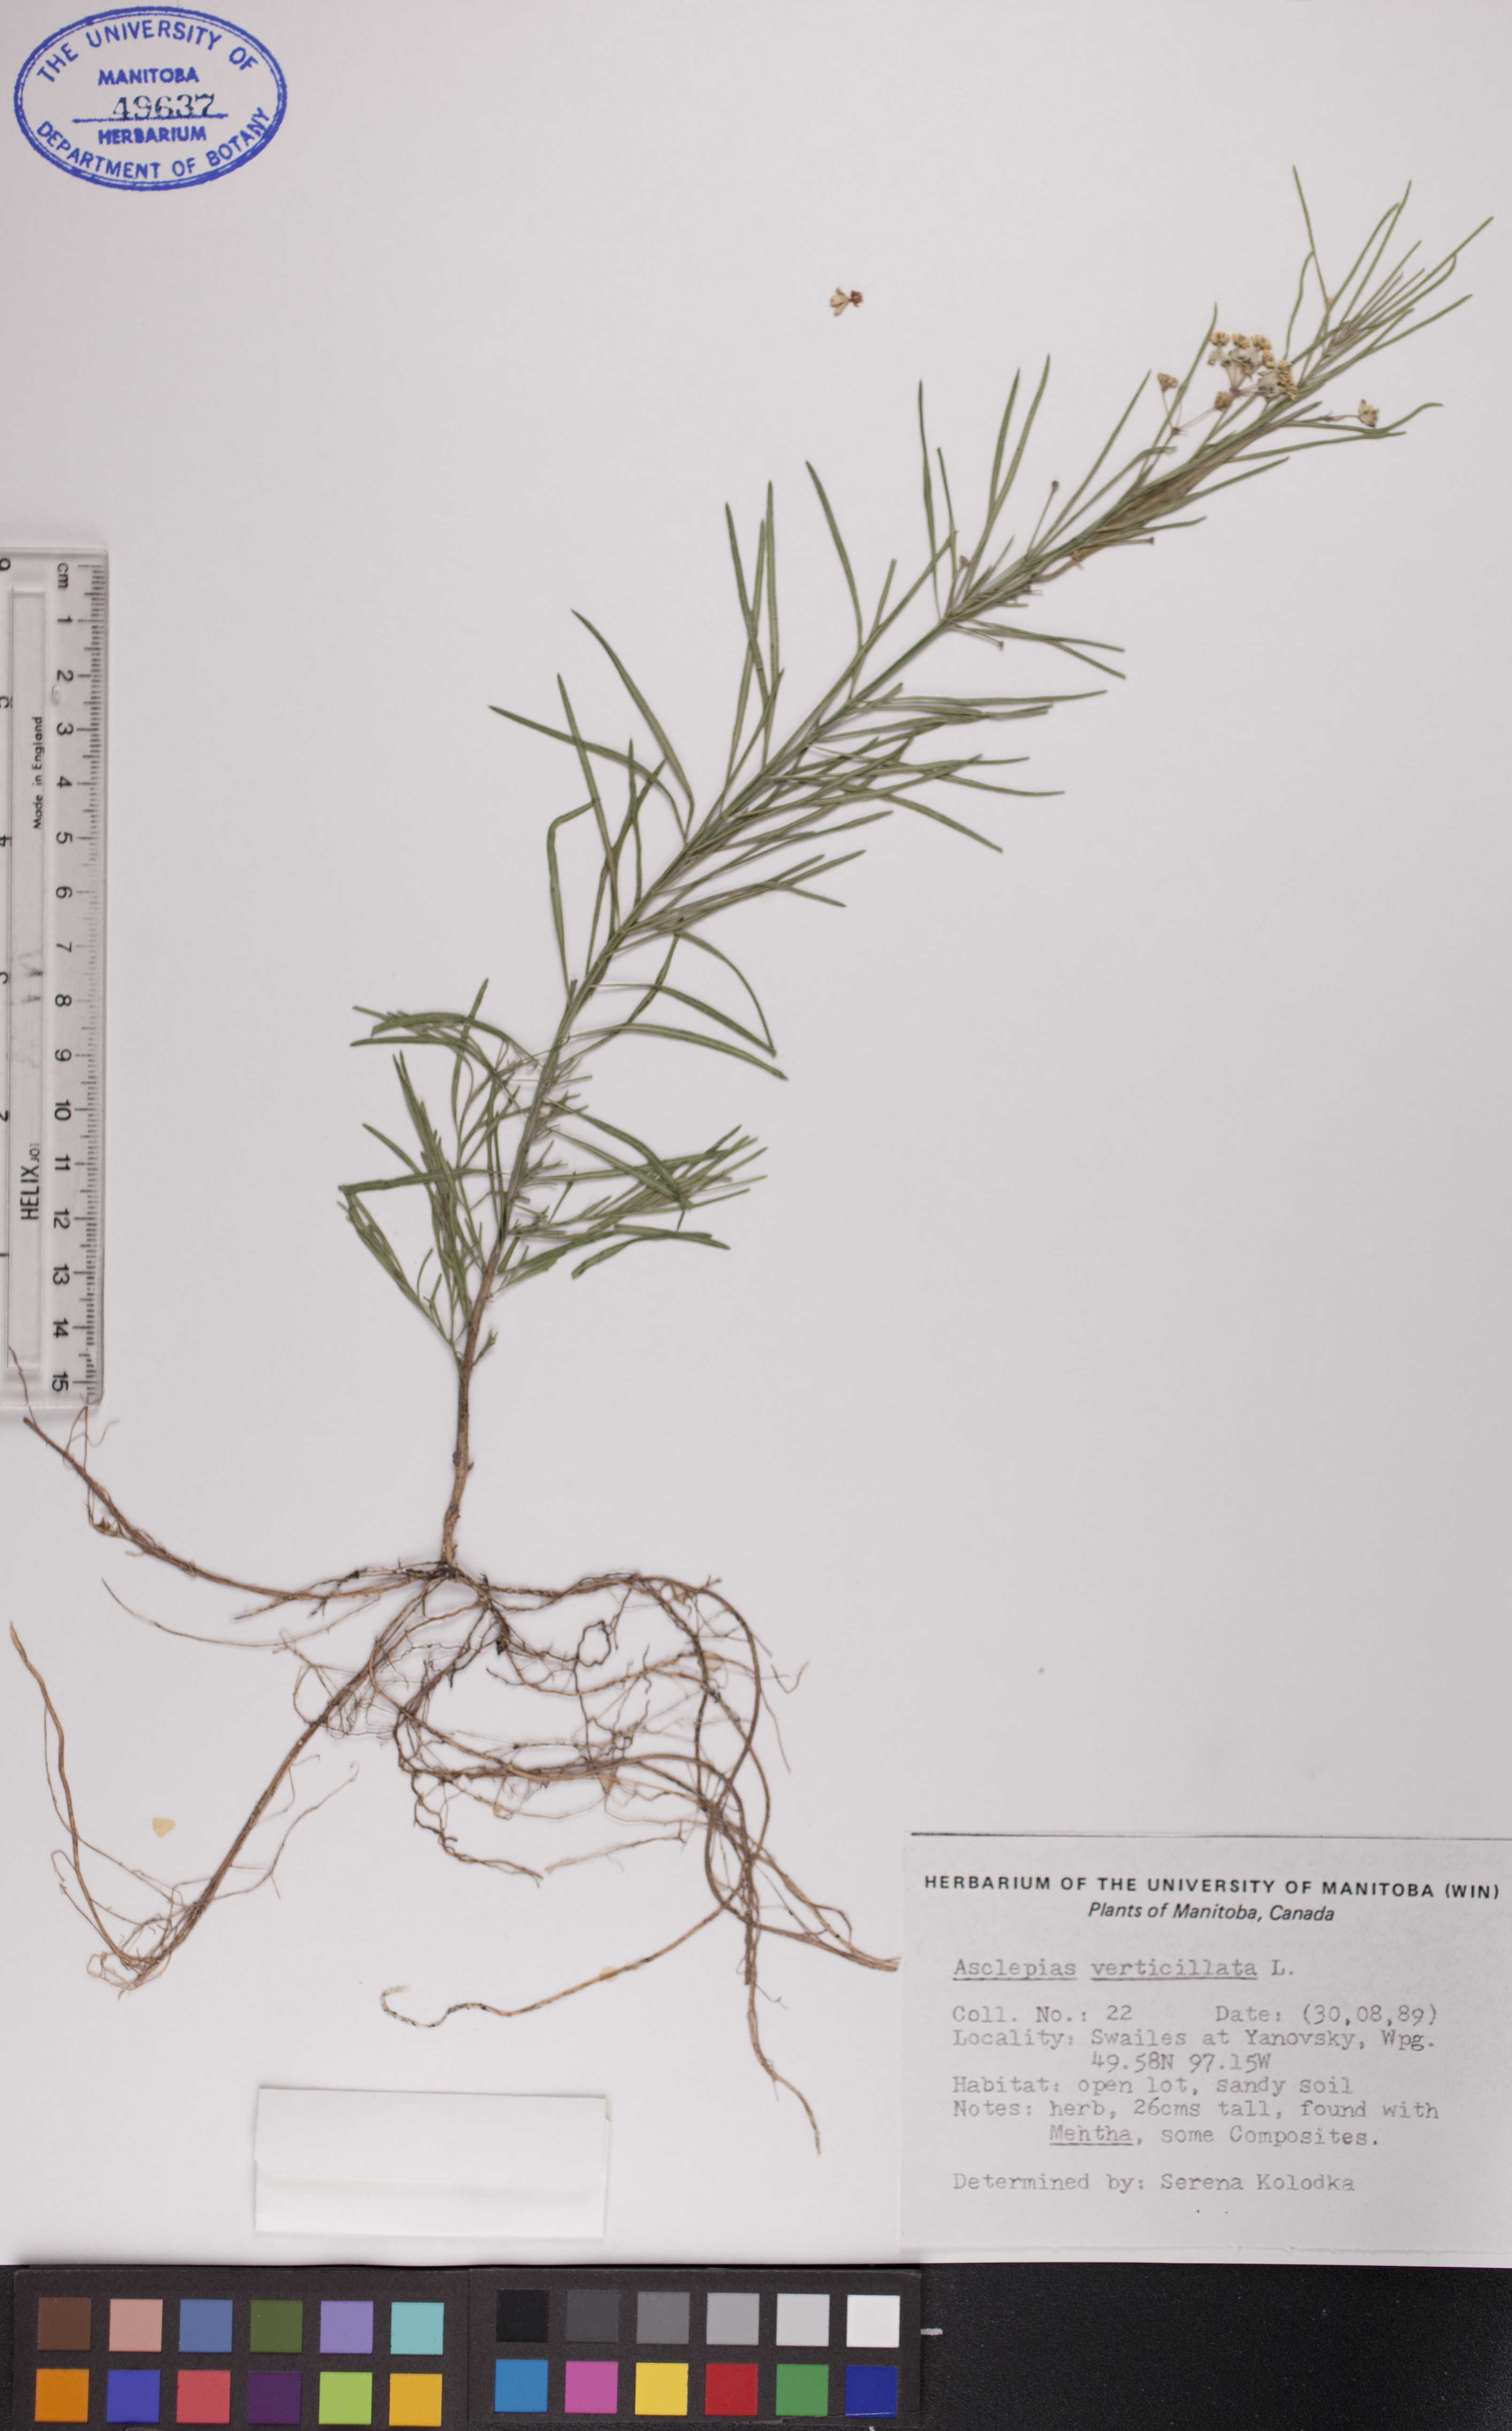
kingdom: Plantae
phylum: Tracheophyta
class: Magnoliopsida
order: Gentianales
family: Apocynaceae
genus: Asclepias
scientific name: Asclepias verticillata
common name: Eastern whorled milkweed
